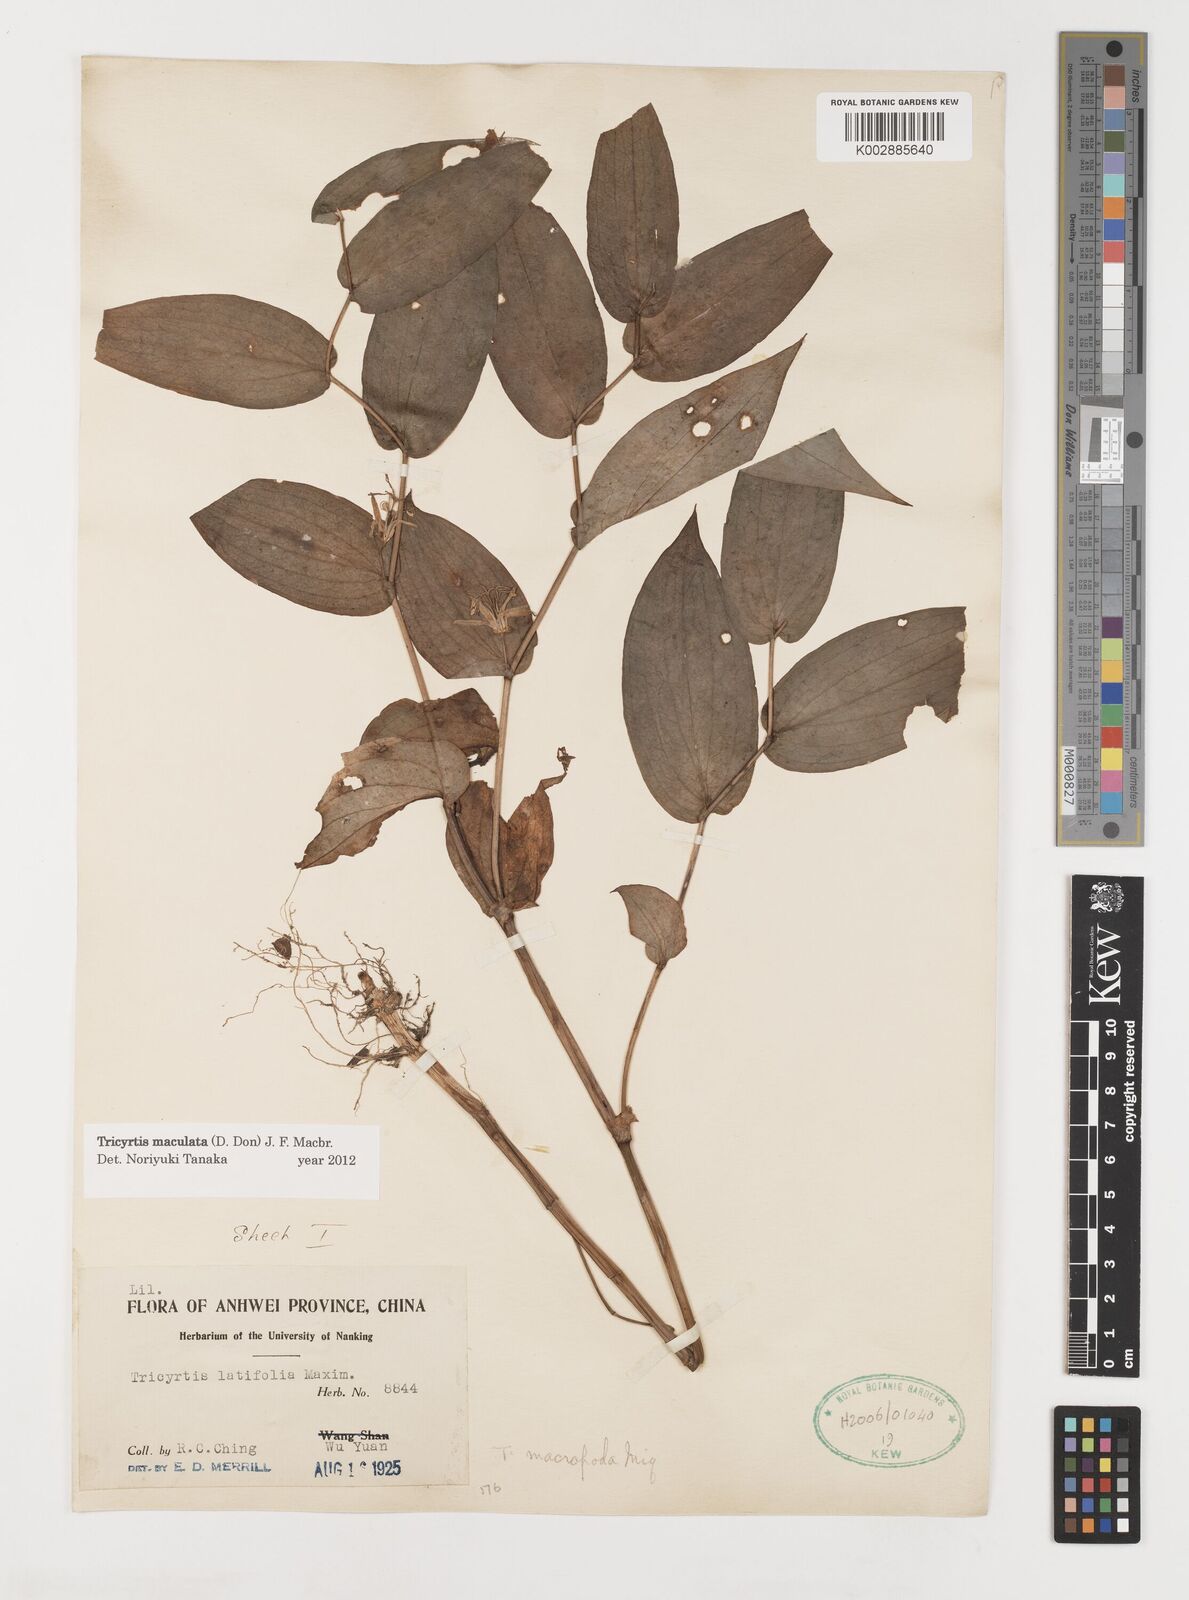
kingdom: Plantae
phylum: Tracheophyta
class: Liliopsida
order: Liliales
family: Liliaceae
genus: Tricyrtis
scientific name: Tricyrtis maculata
